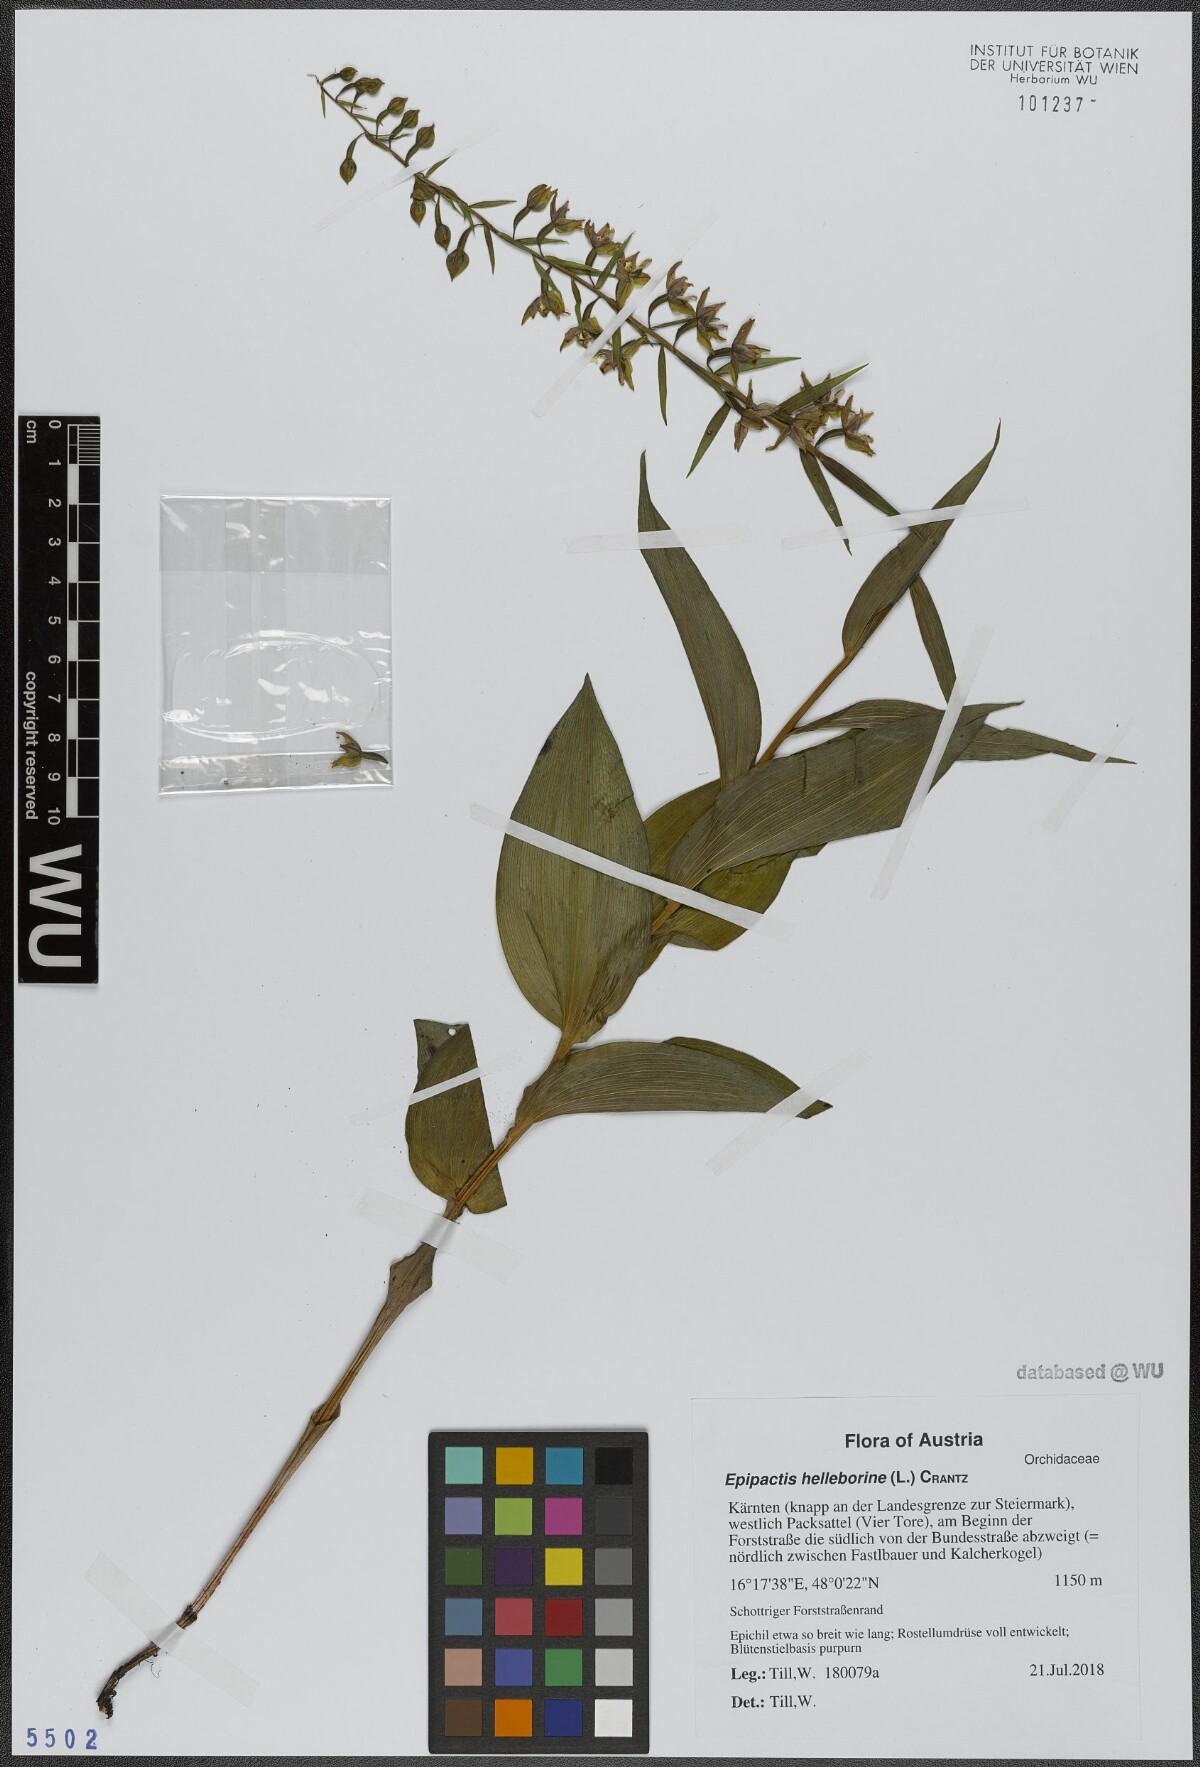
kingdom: Plantae
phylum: Tracheophyta
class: Liliopsida
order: Asparagales
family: Orchidaceae
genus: Epipactis
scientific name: Epipactis helleborine
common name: Broad-leaved helleborine
